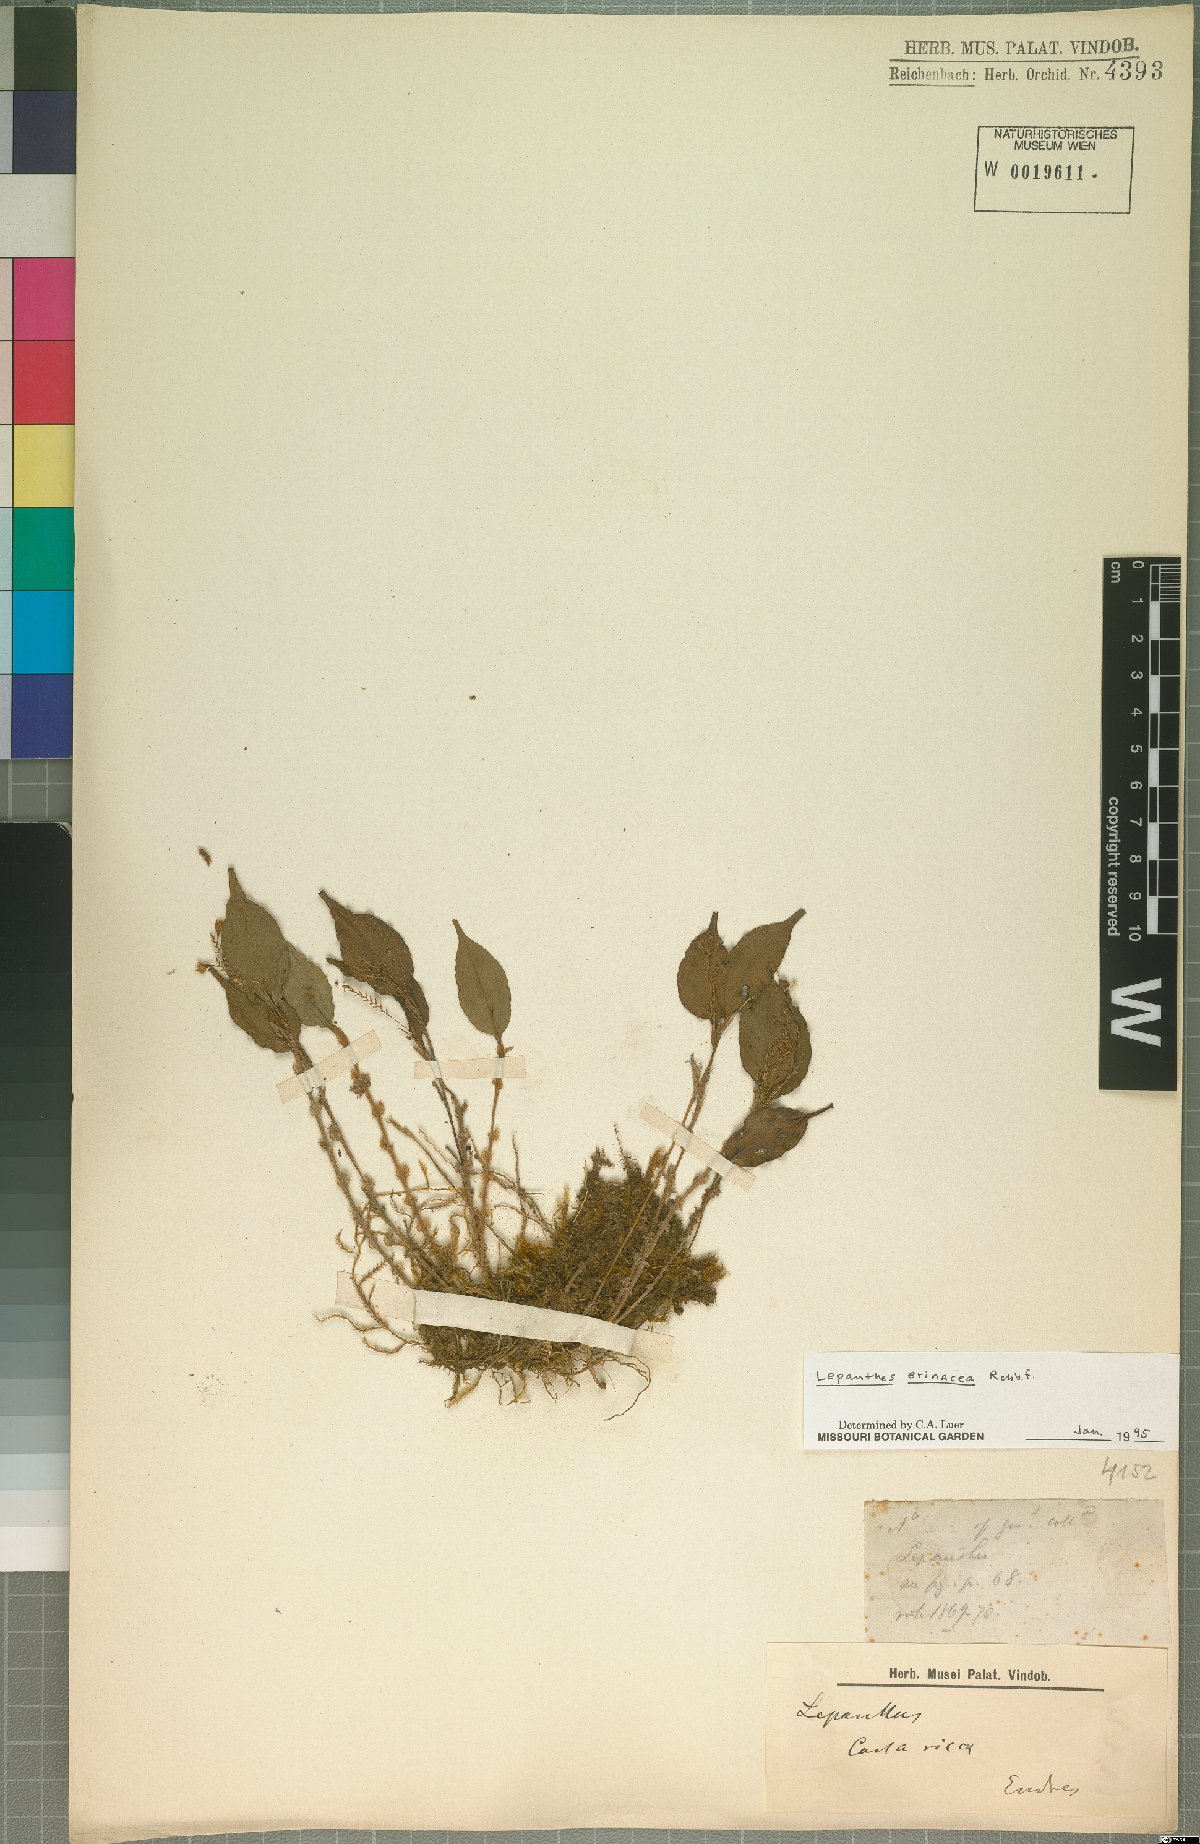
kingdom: Plantae
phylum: Tracheophyta
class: Liliopsida
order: Asparagales
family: Orchidaceae
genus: Lepanthes
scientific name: Lepanthes erinacea
